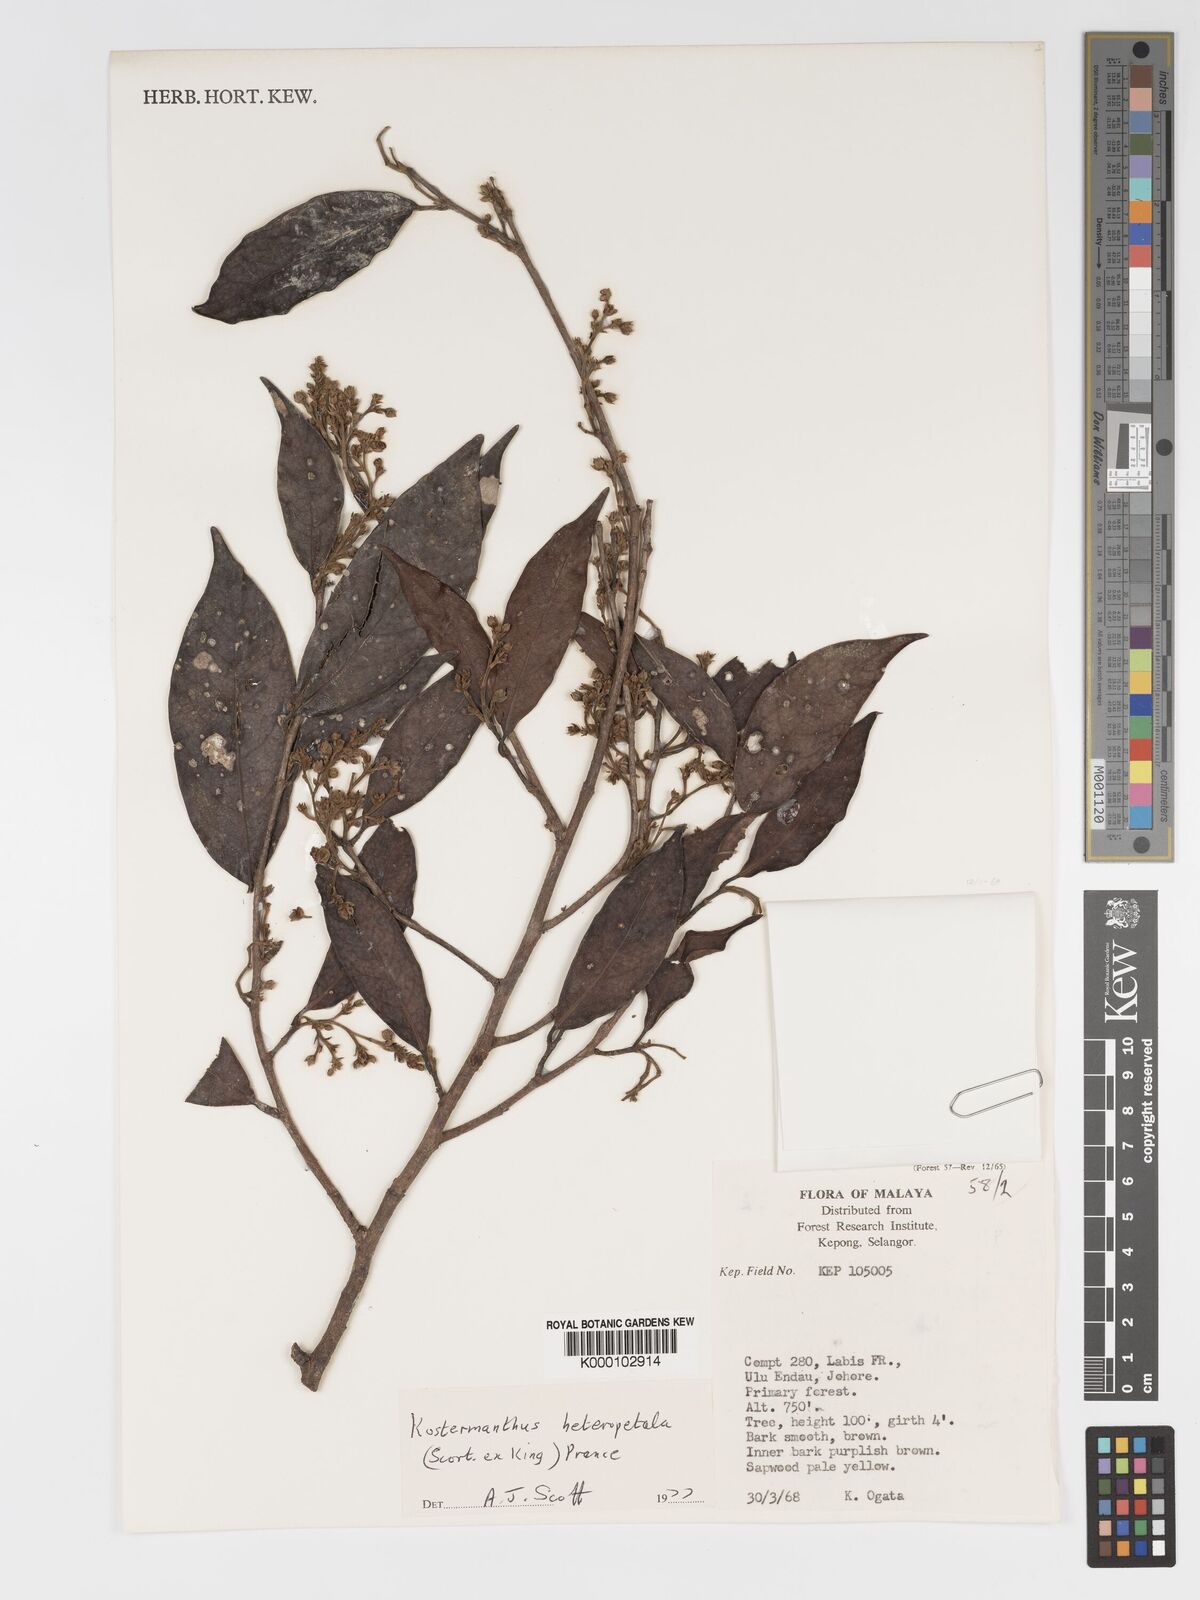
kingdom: Plantae
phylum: Tracheophyta
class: Magnoliopsida
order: Malpighiales
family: Chrysobalanaceae
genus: Kostermanthus
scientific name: Kostermanthus heteropetalus
